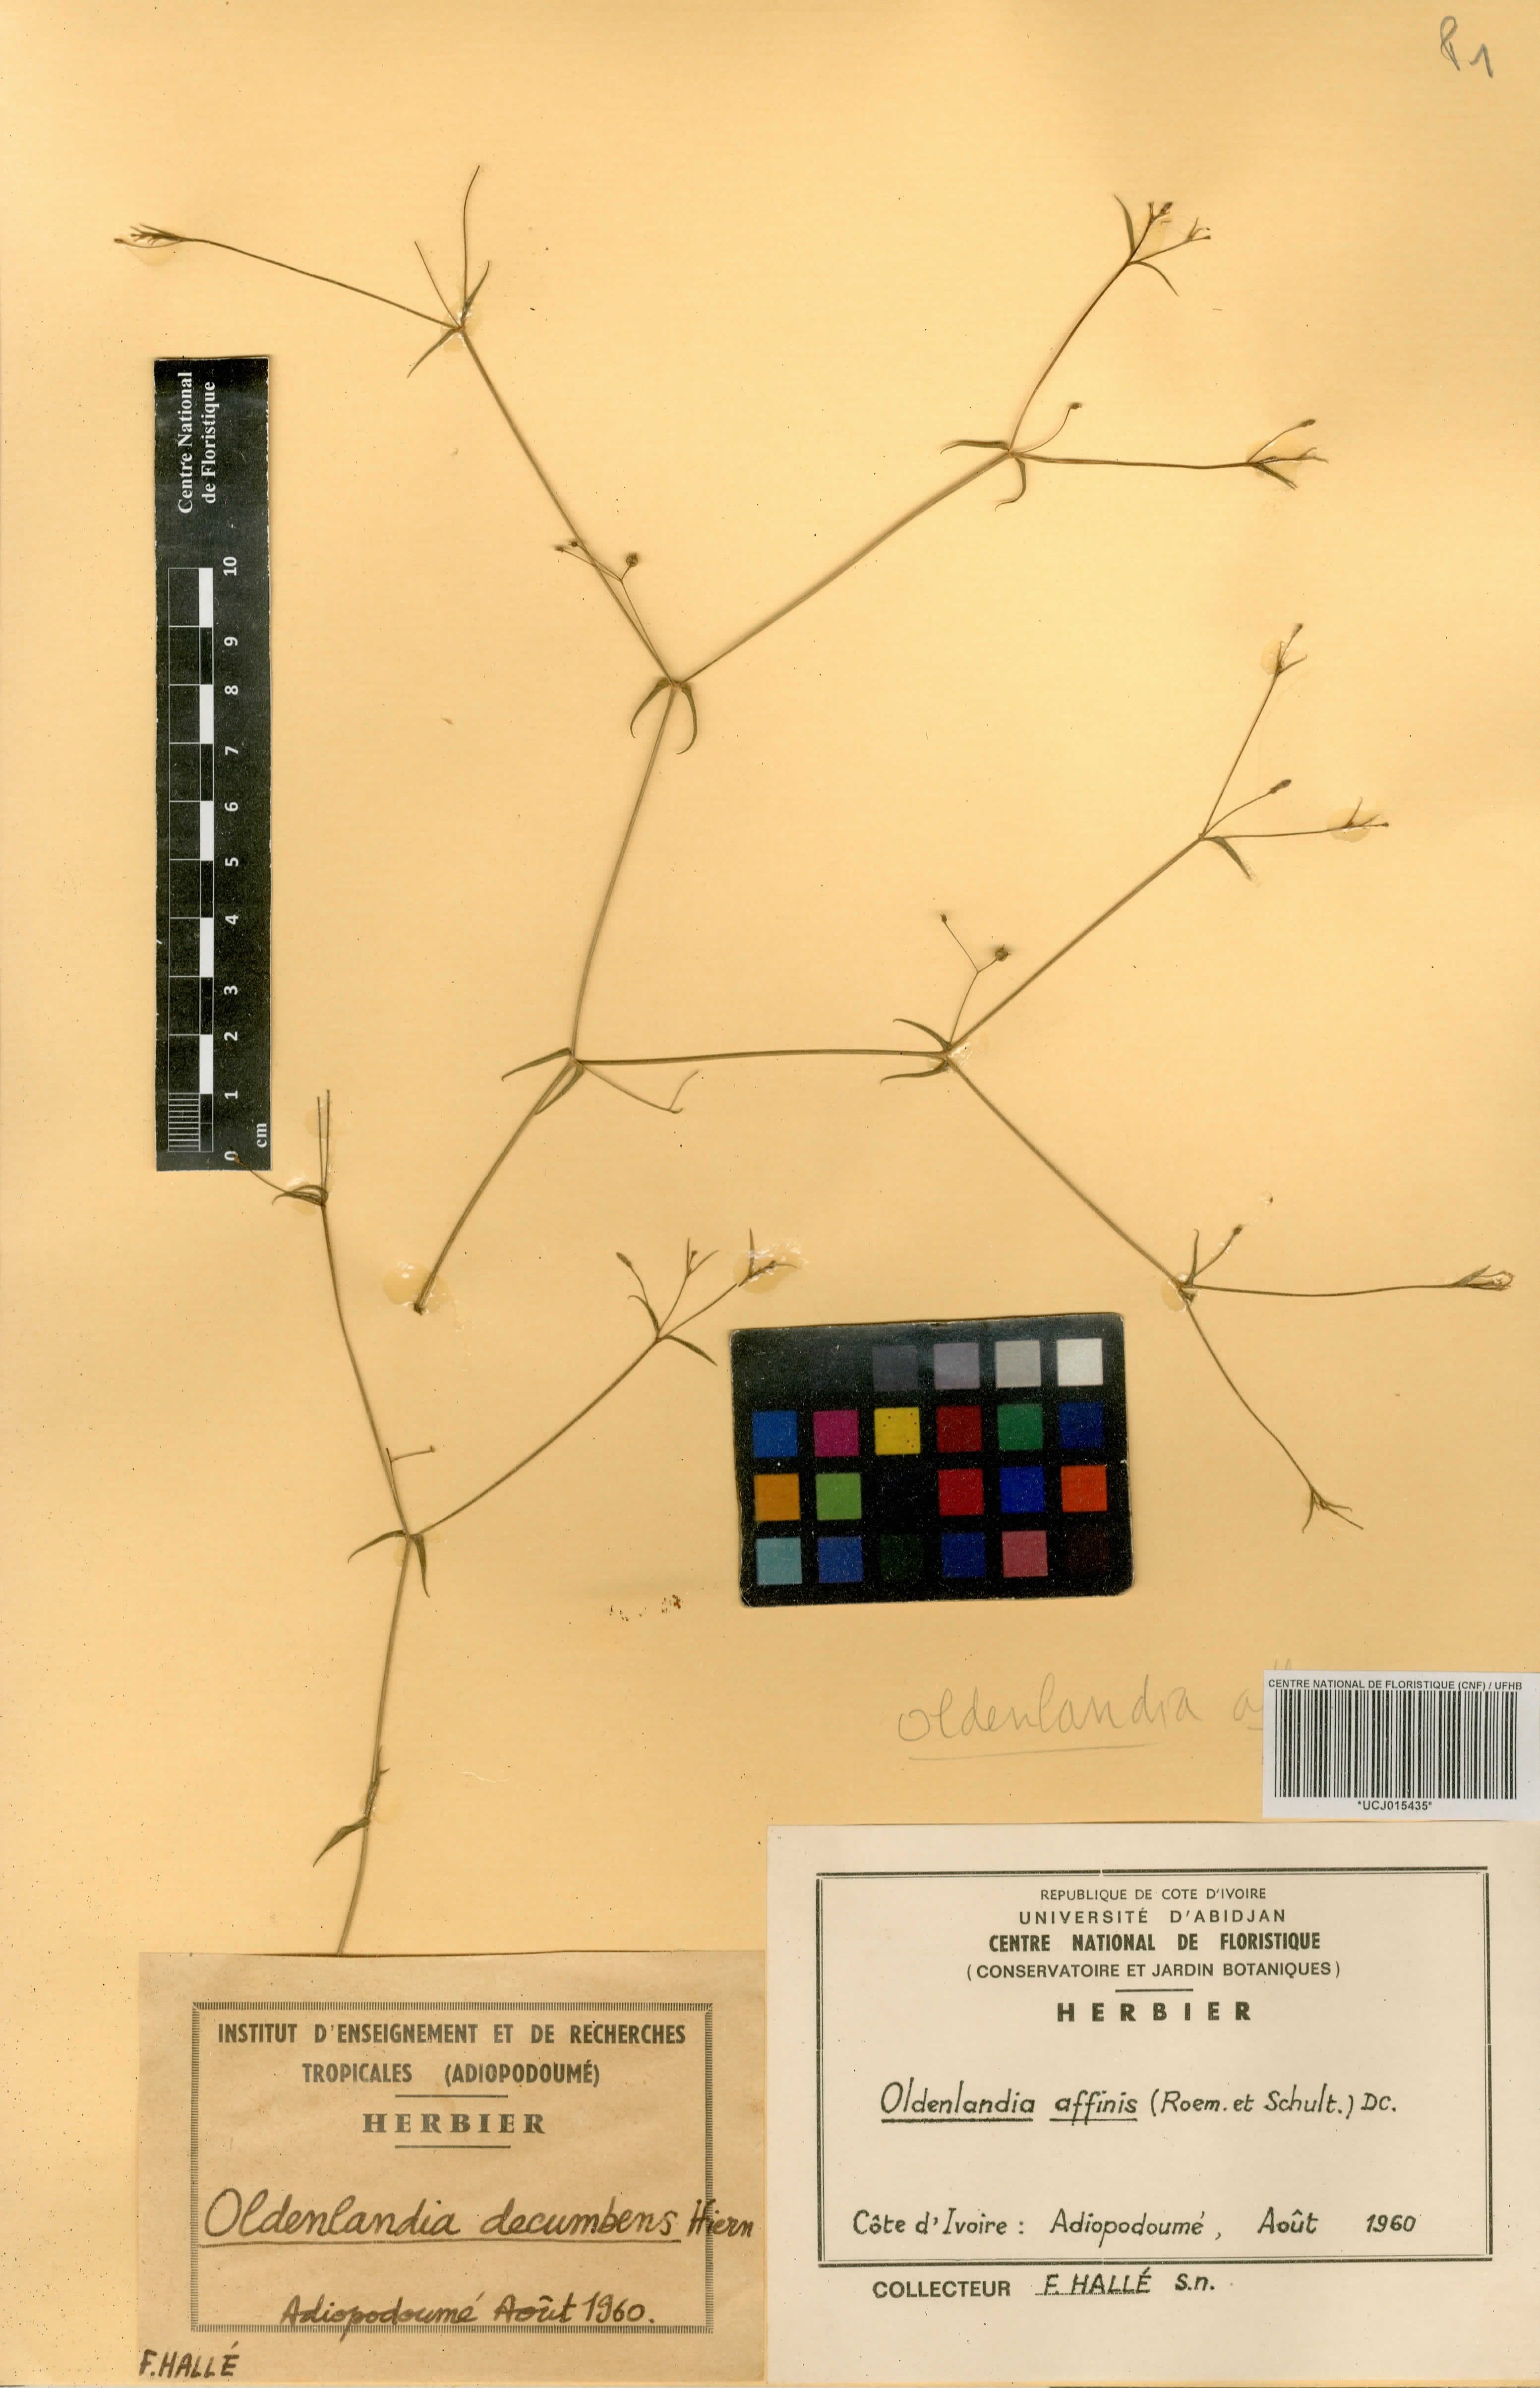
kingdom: Plantae
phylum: Tracheophyta
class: Magnoliopsida
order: Gentianales
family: Rubiaceae
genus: Oldenlandia
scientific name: Oldenlandia affinis
